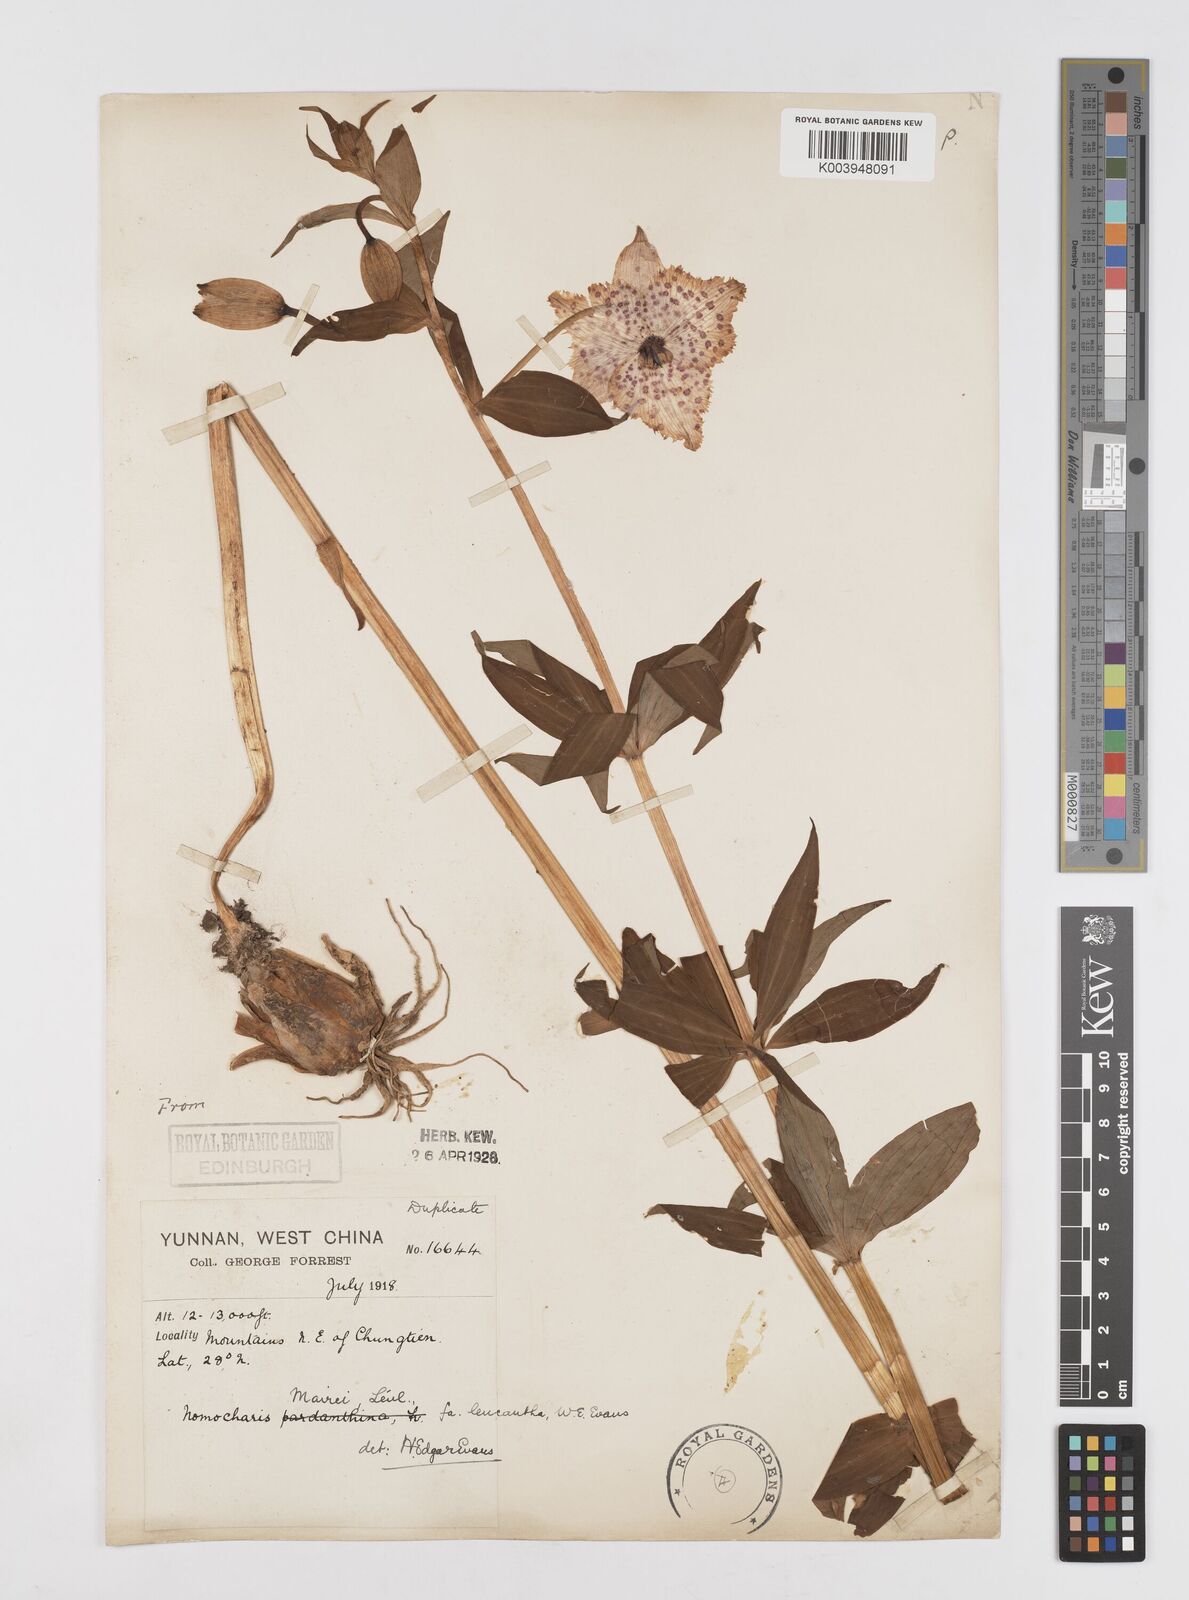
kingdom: Plantae
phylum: Tracheophyta
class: Liliopsida
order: Liliales
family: Liliaceae
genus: Lilium
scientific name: Lilium pardanthinum
